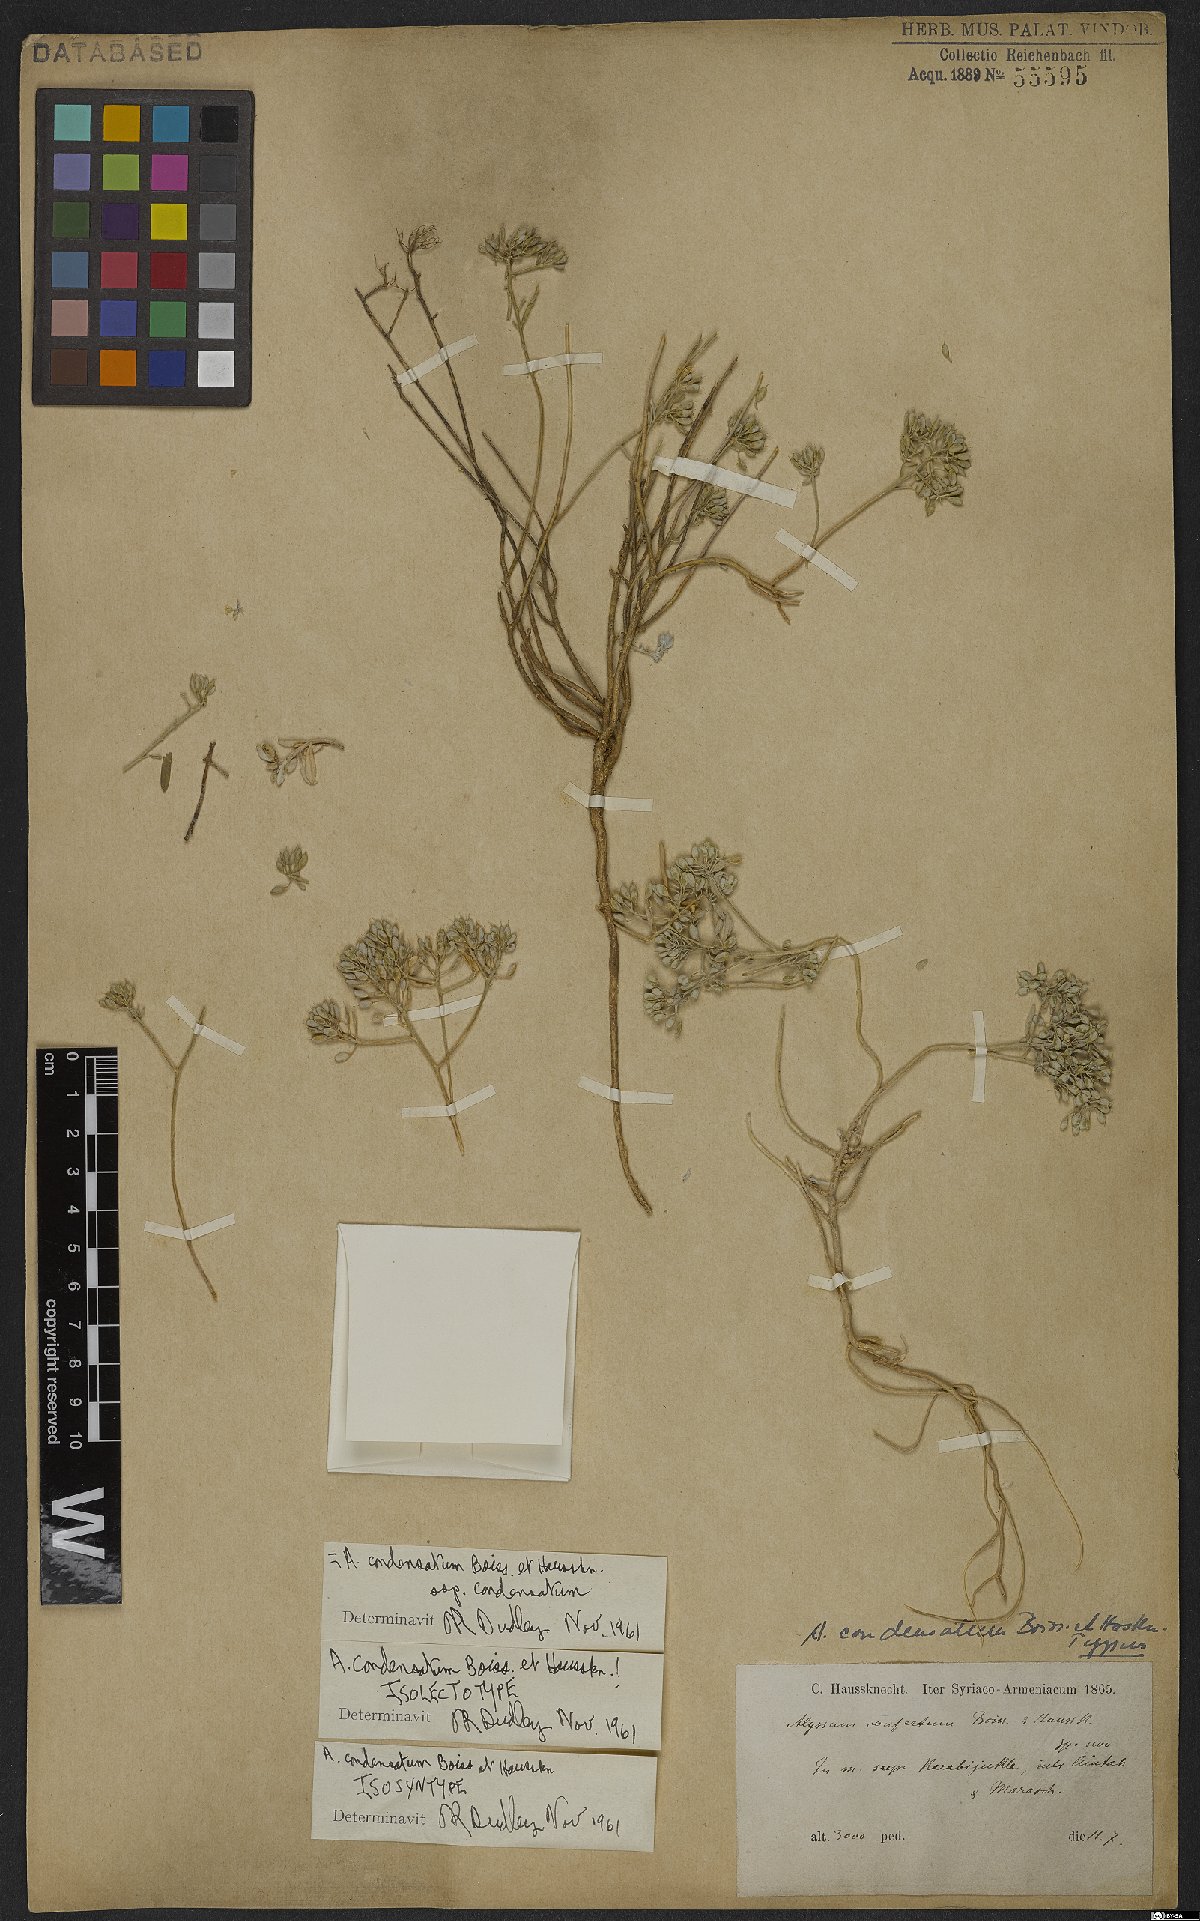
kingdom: Plantae
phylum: Tracheophyta
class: Magnoliopsida
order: Brassicales
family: Brassicaceae
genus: Odontarrhena
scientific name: Odontarrhena condensata
